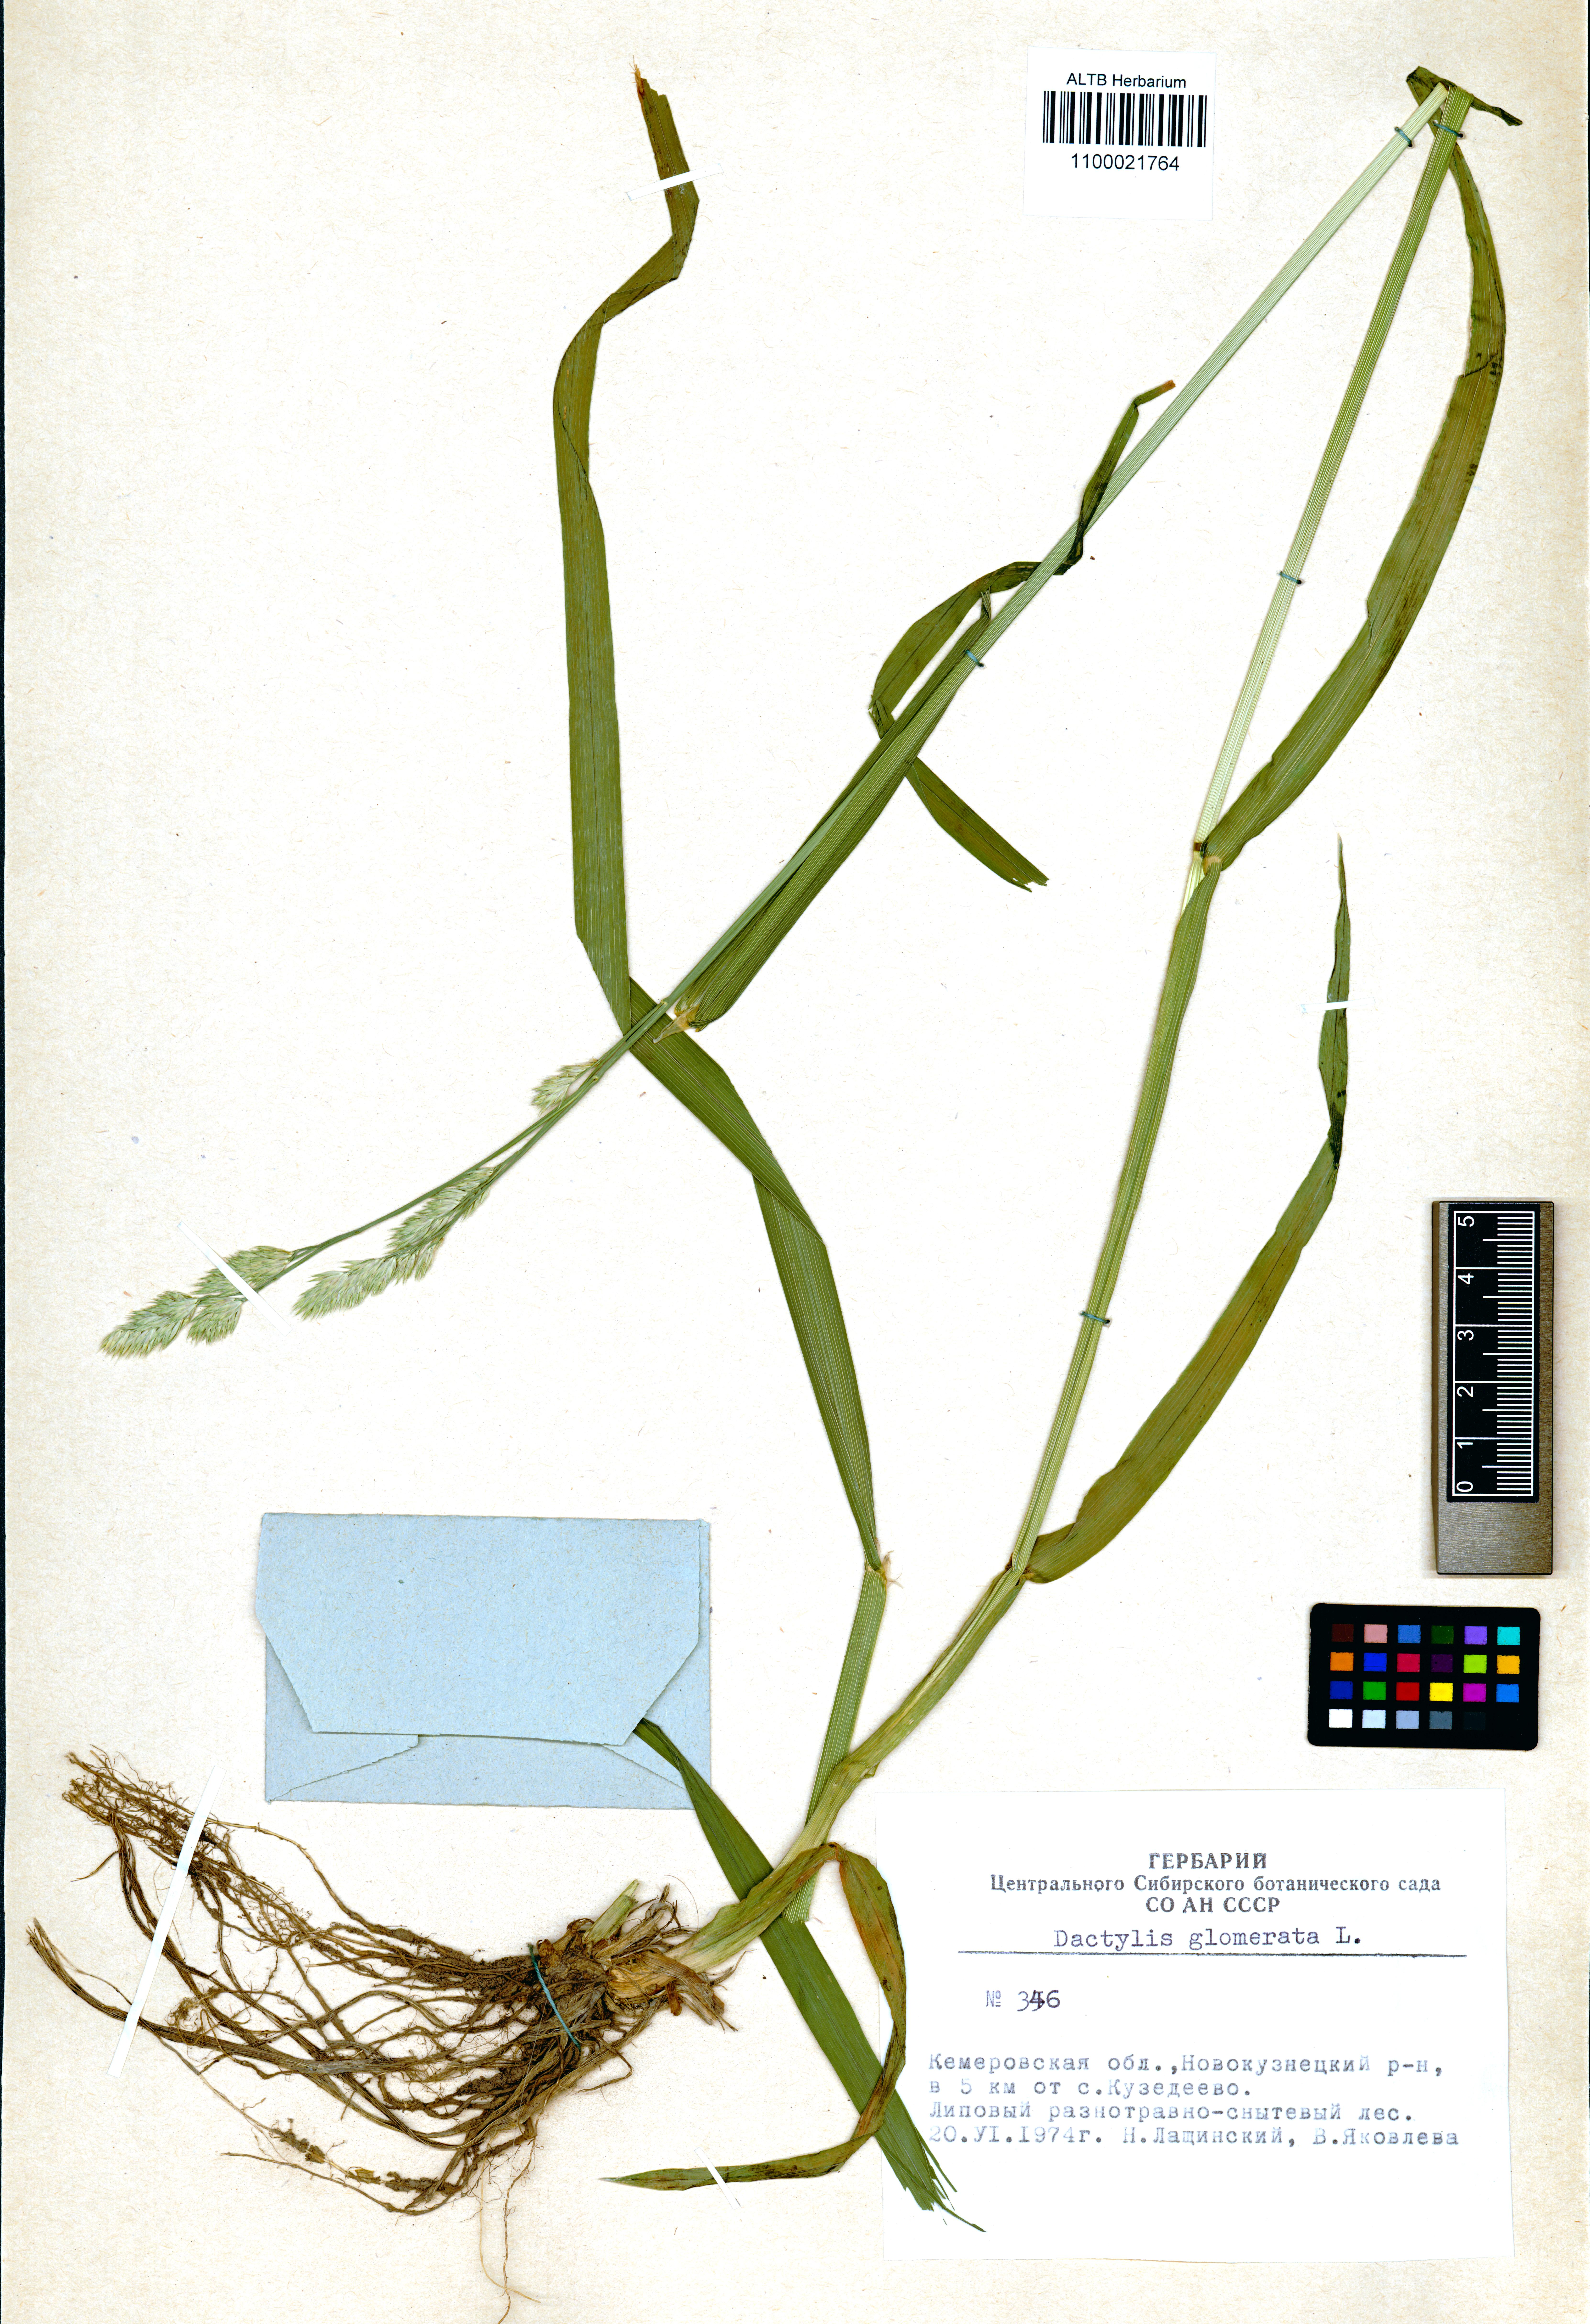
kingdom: Plantae
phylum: Tracheophyta
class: Liliopsida
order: Poales
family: Poaceae
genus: Dactylis
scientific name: Dactylis glomerata
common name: Orchardgrass
